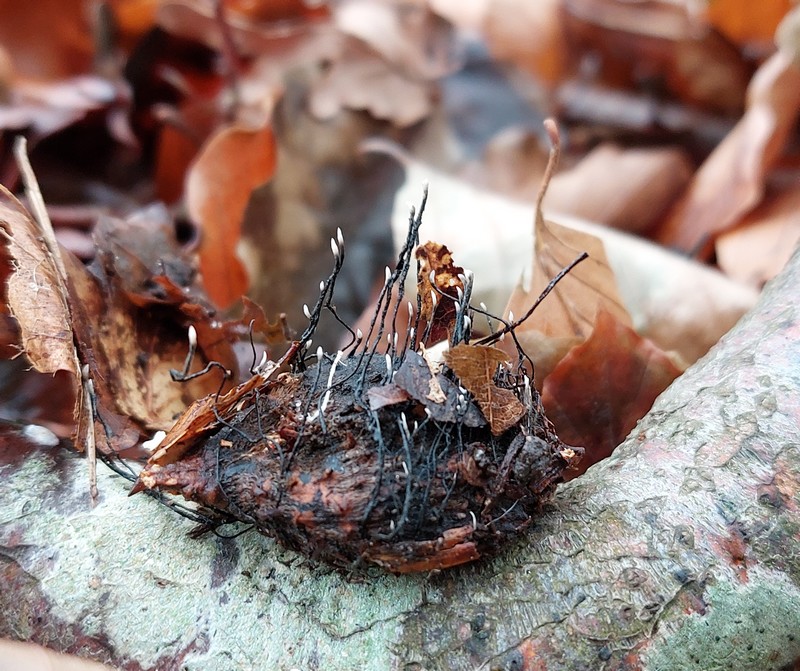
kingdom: Fungi
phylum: Ascomycota
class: Sordariomycetes
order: Xylariales
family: Xylariaceae
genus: Xylaria
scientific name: Xylaria carpophila
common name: bogskål-stødsvamp
